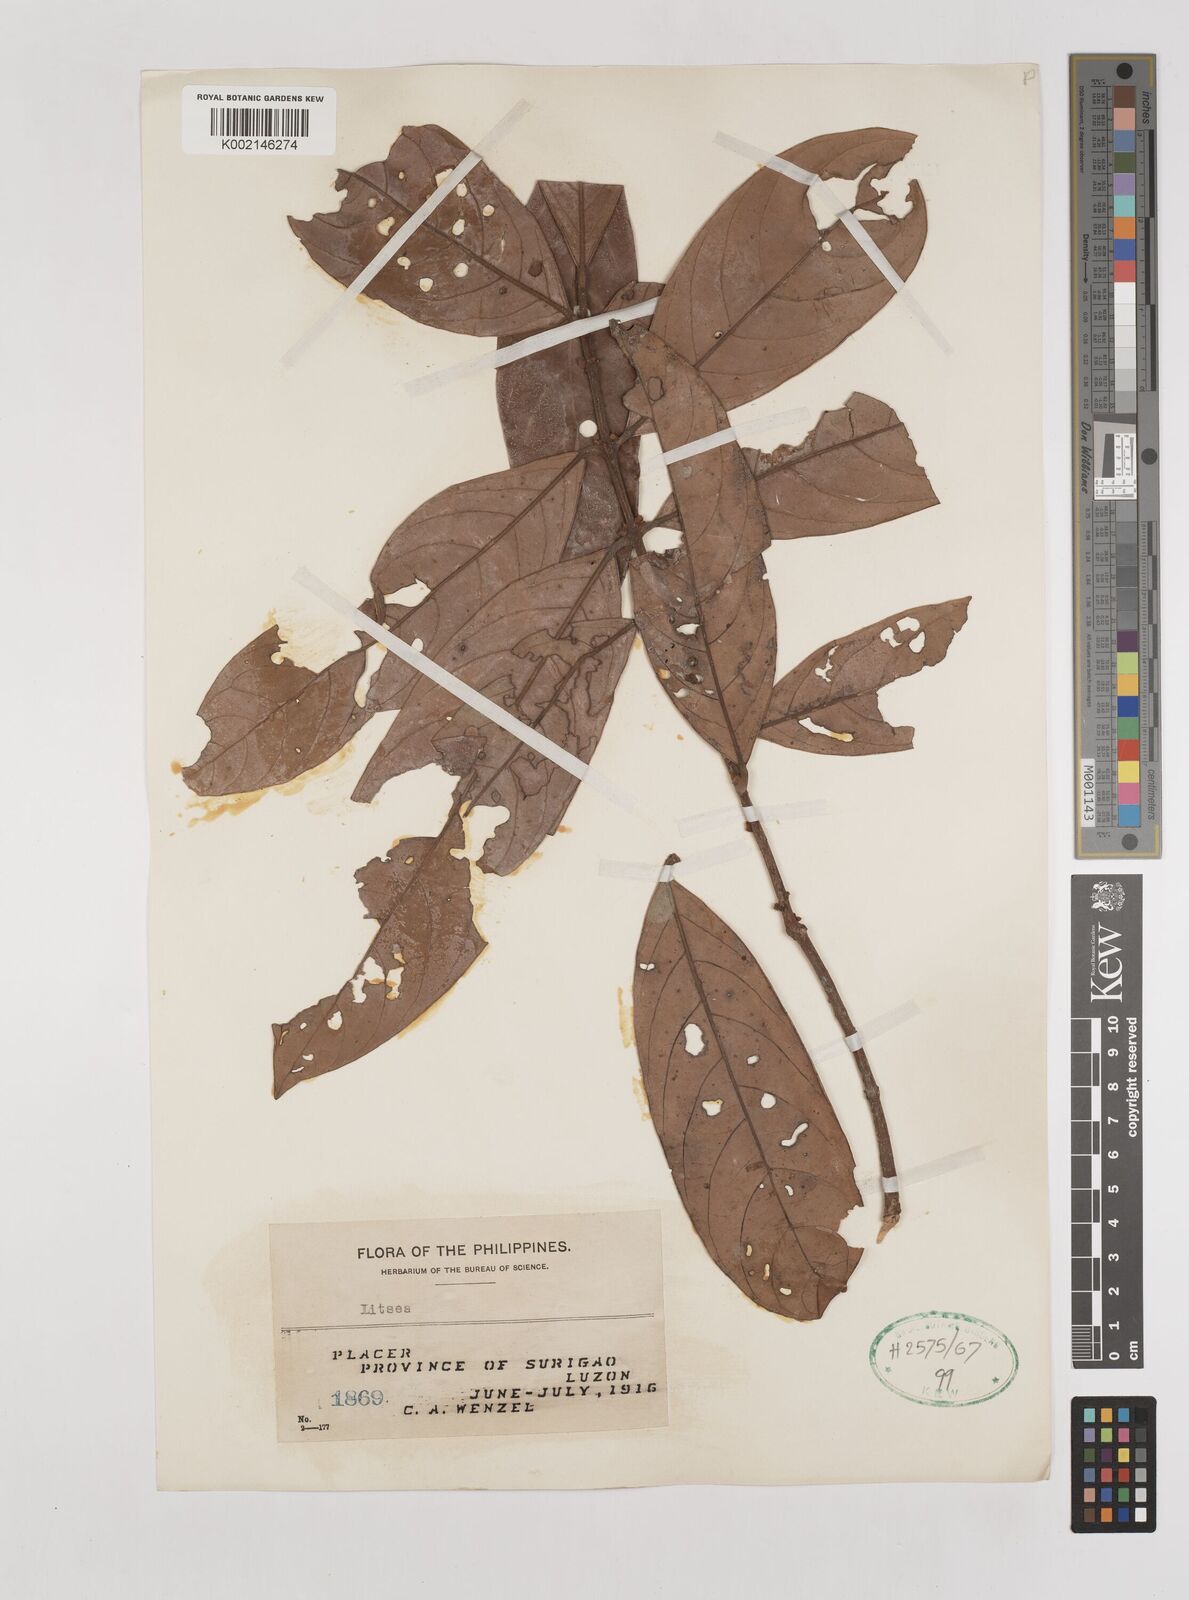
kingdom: Plantae
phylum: Tracheophyta
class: Magnoliopsida
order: Laurales
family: Lauraceae
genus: Litsea
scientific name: Litsea
